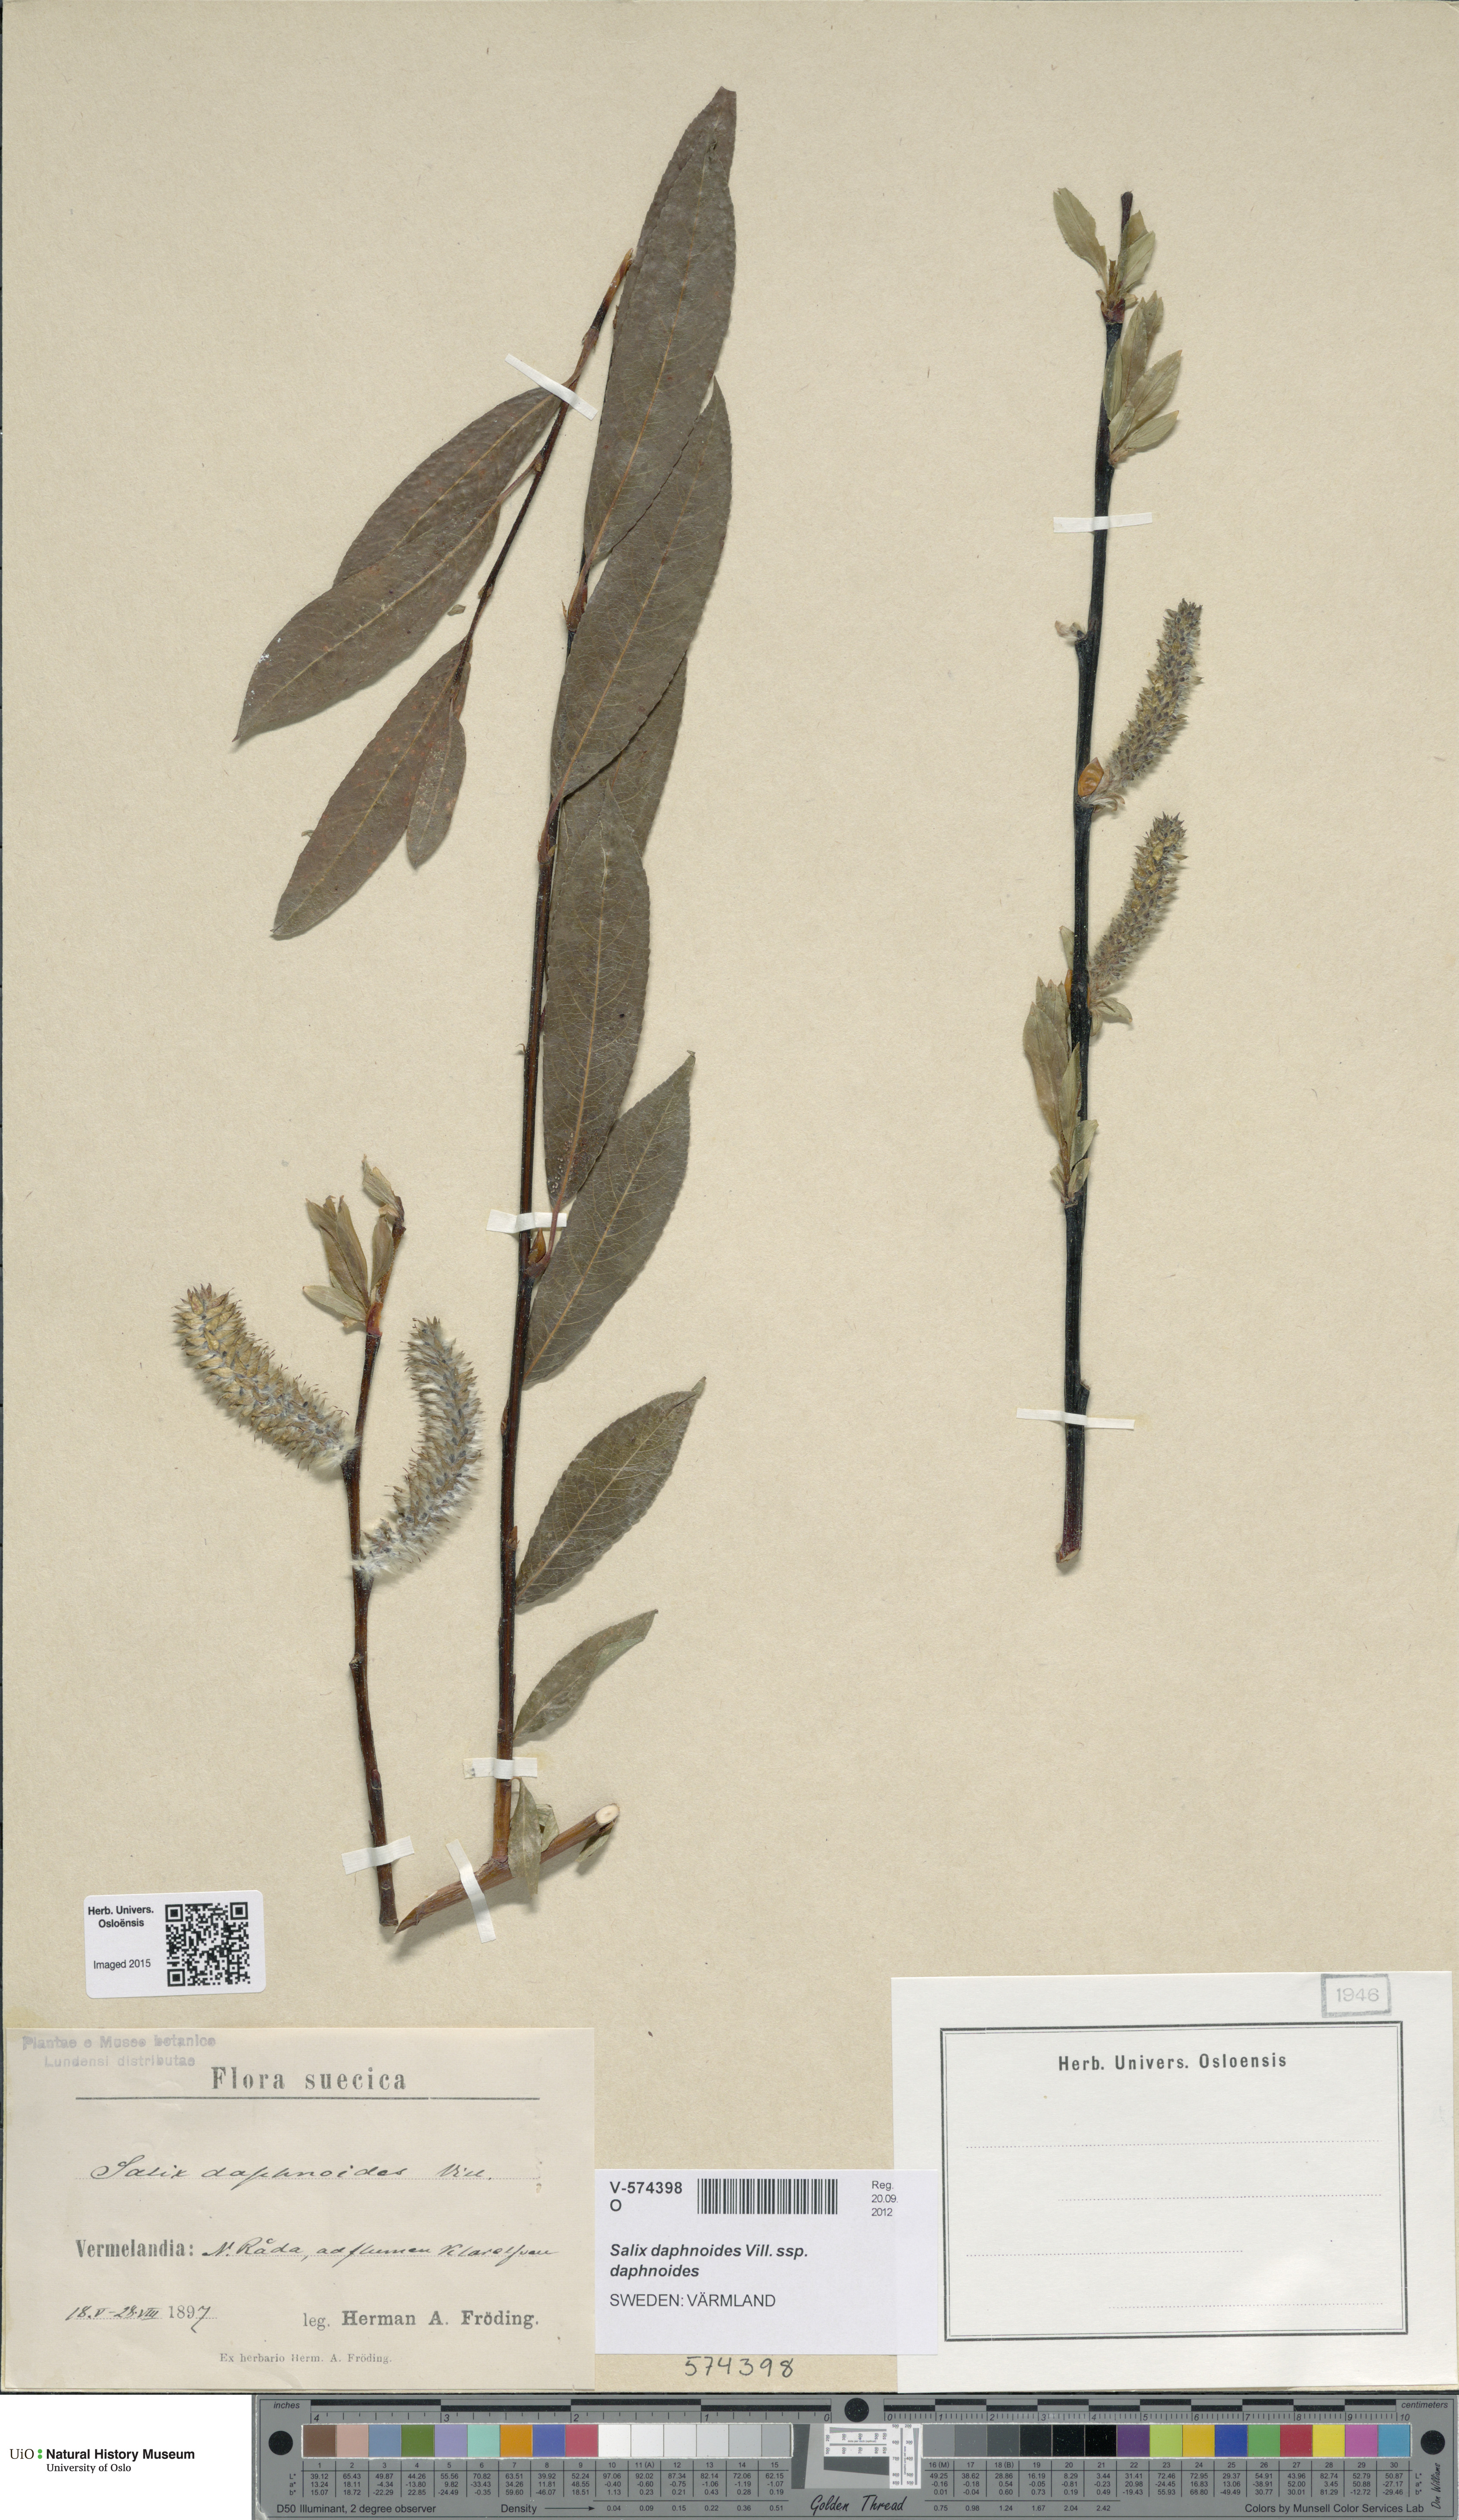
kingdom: Plantae
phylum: Tracheophyta
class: Magnoliopsida
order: Malpighiales
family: Salicaceae
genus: Salix
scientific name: Salix daphnoides
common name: European violet-willow
